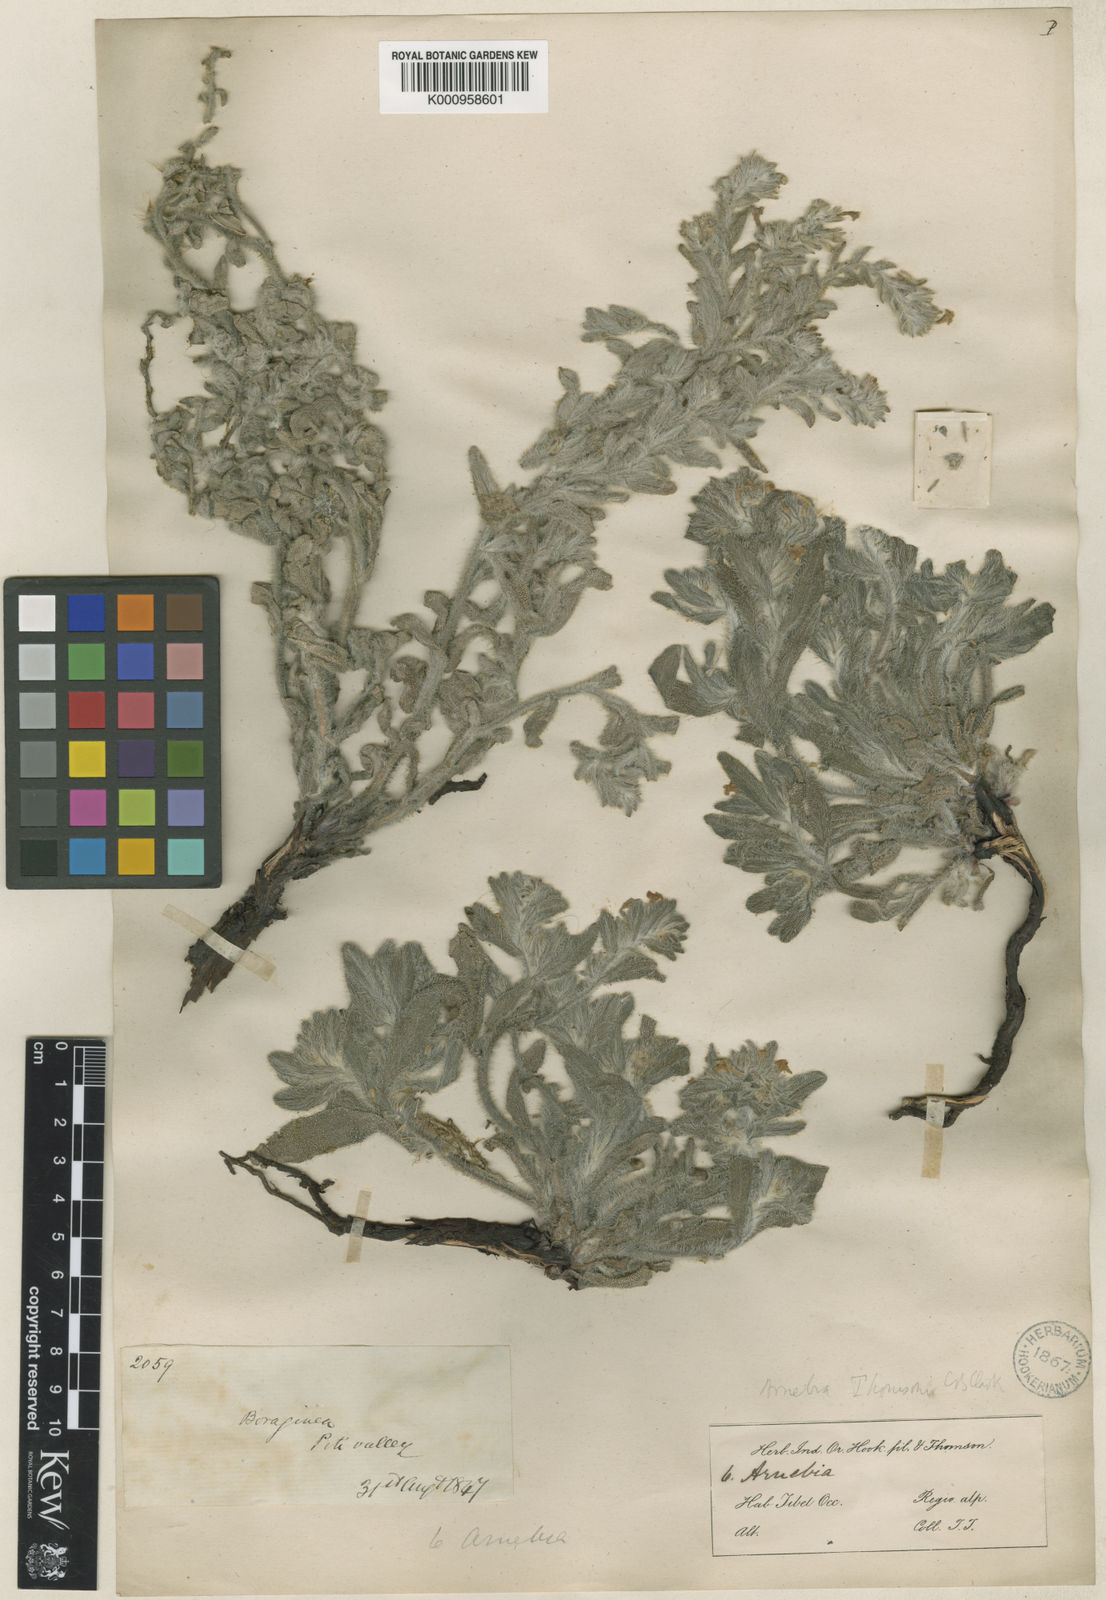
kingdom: Plantae
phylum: Tracheophyta
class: Magnoliopsida
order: Boraginales
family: Boraginaceae
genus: Arnebia
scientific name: Arnebia guttata
